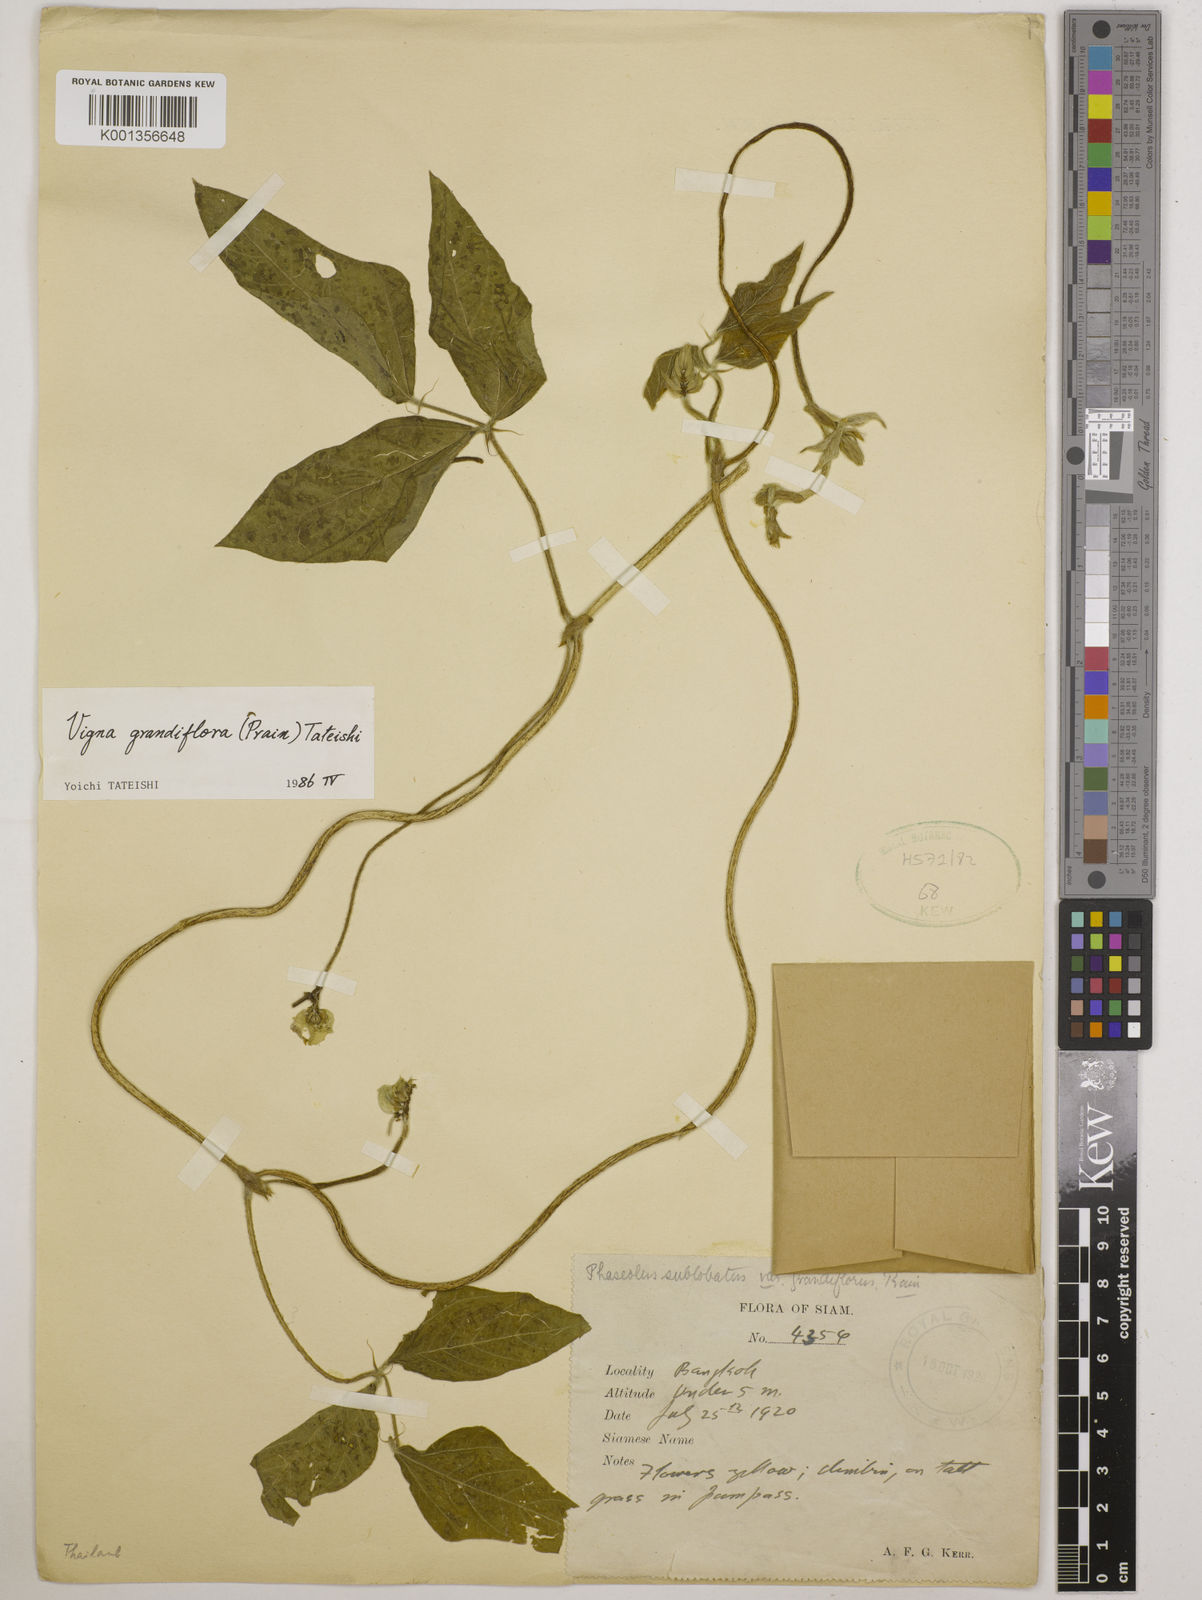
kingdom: Plantae
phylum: Tracheophyta
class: Magnoliopsida
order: Fabales
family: Fabaceae
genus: Vigna
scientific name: Vigna
